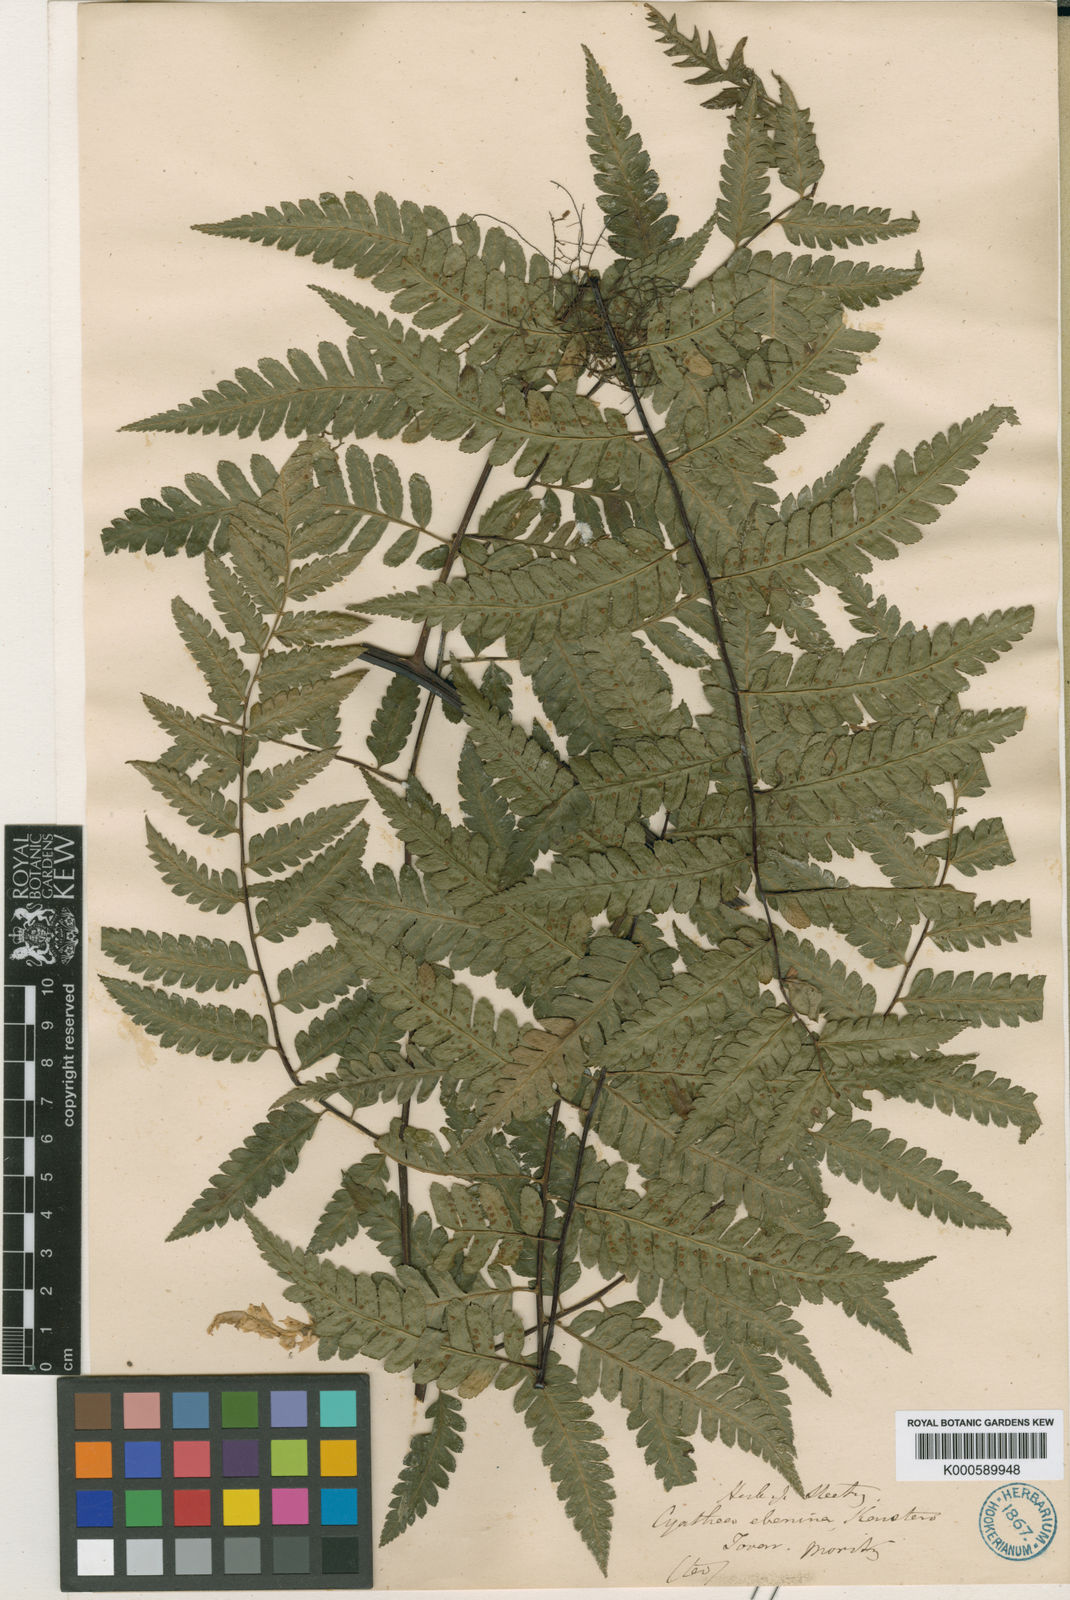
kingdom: Plantae
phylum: Tracheophyta
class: Polypodiopsida
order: Cyatheales
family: Cyatheaceae
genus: Cyathea
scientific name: Cyathea ebenina
